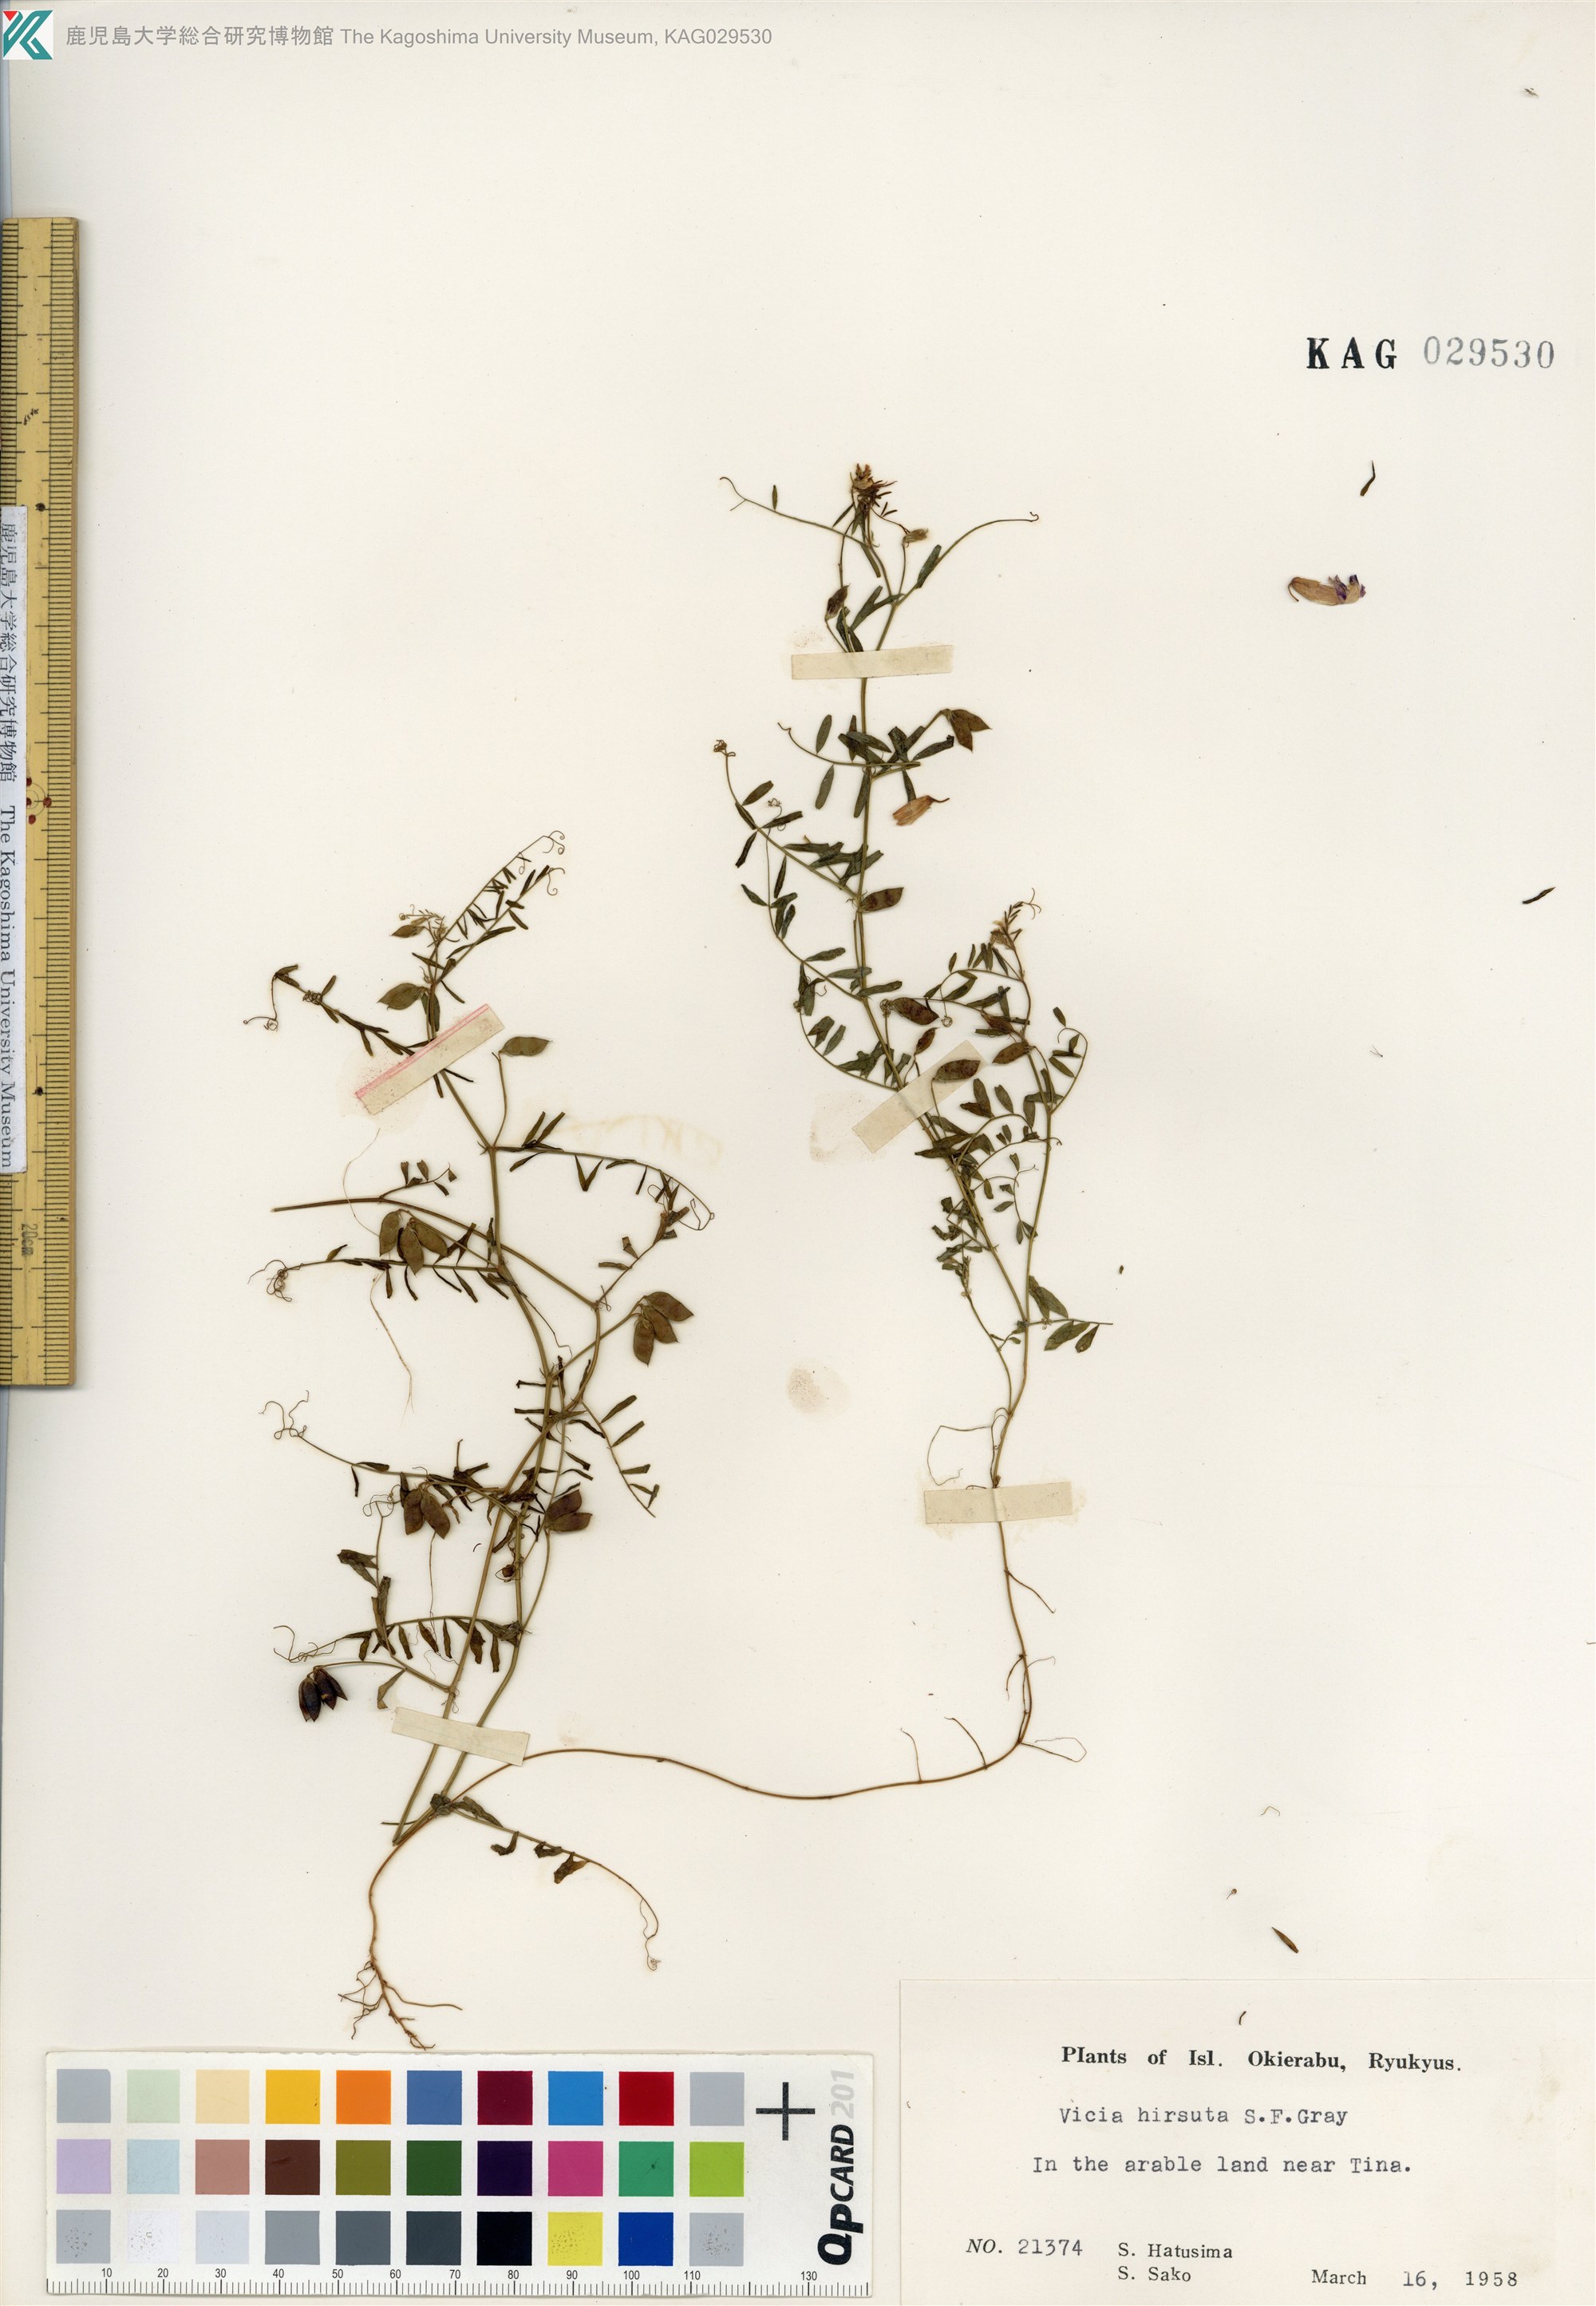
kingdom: Plantae
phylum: Tracheophyta
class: Magnoliopsida
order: Fabales
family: Fabaceae
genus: Vicia
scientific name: Vicia hirsuta
